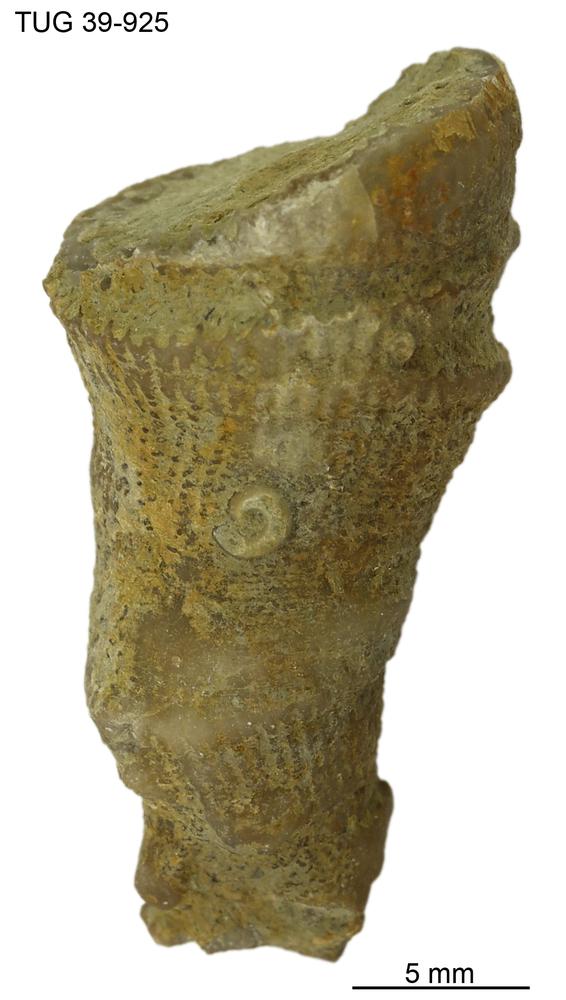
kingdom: Animalia
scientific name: Animalia
